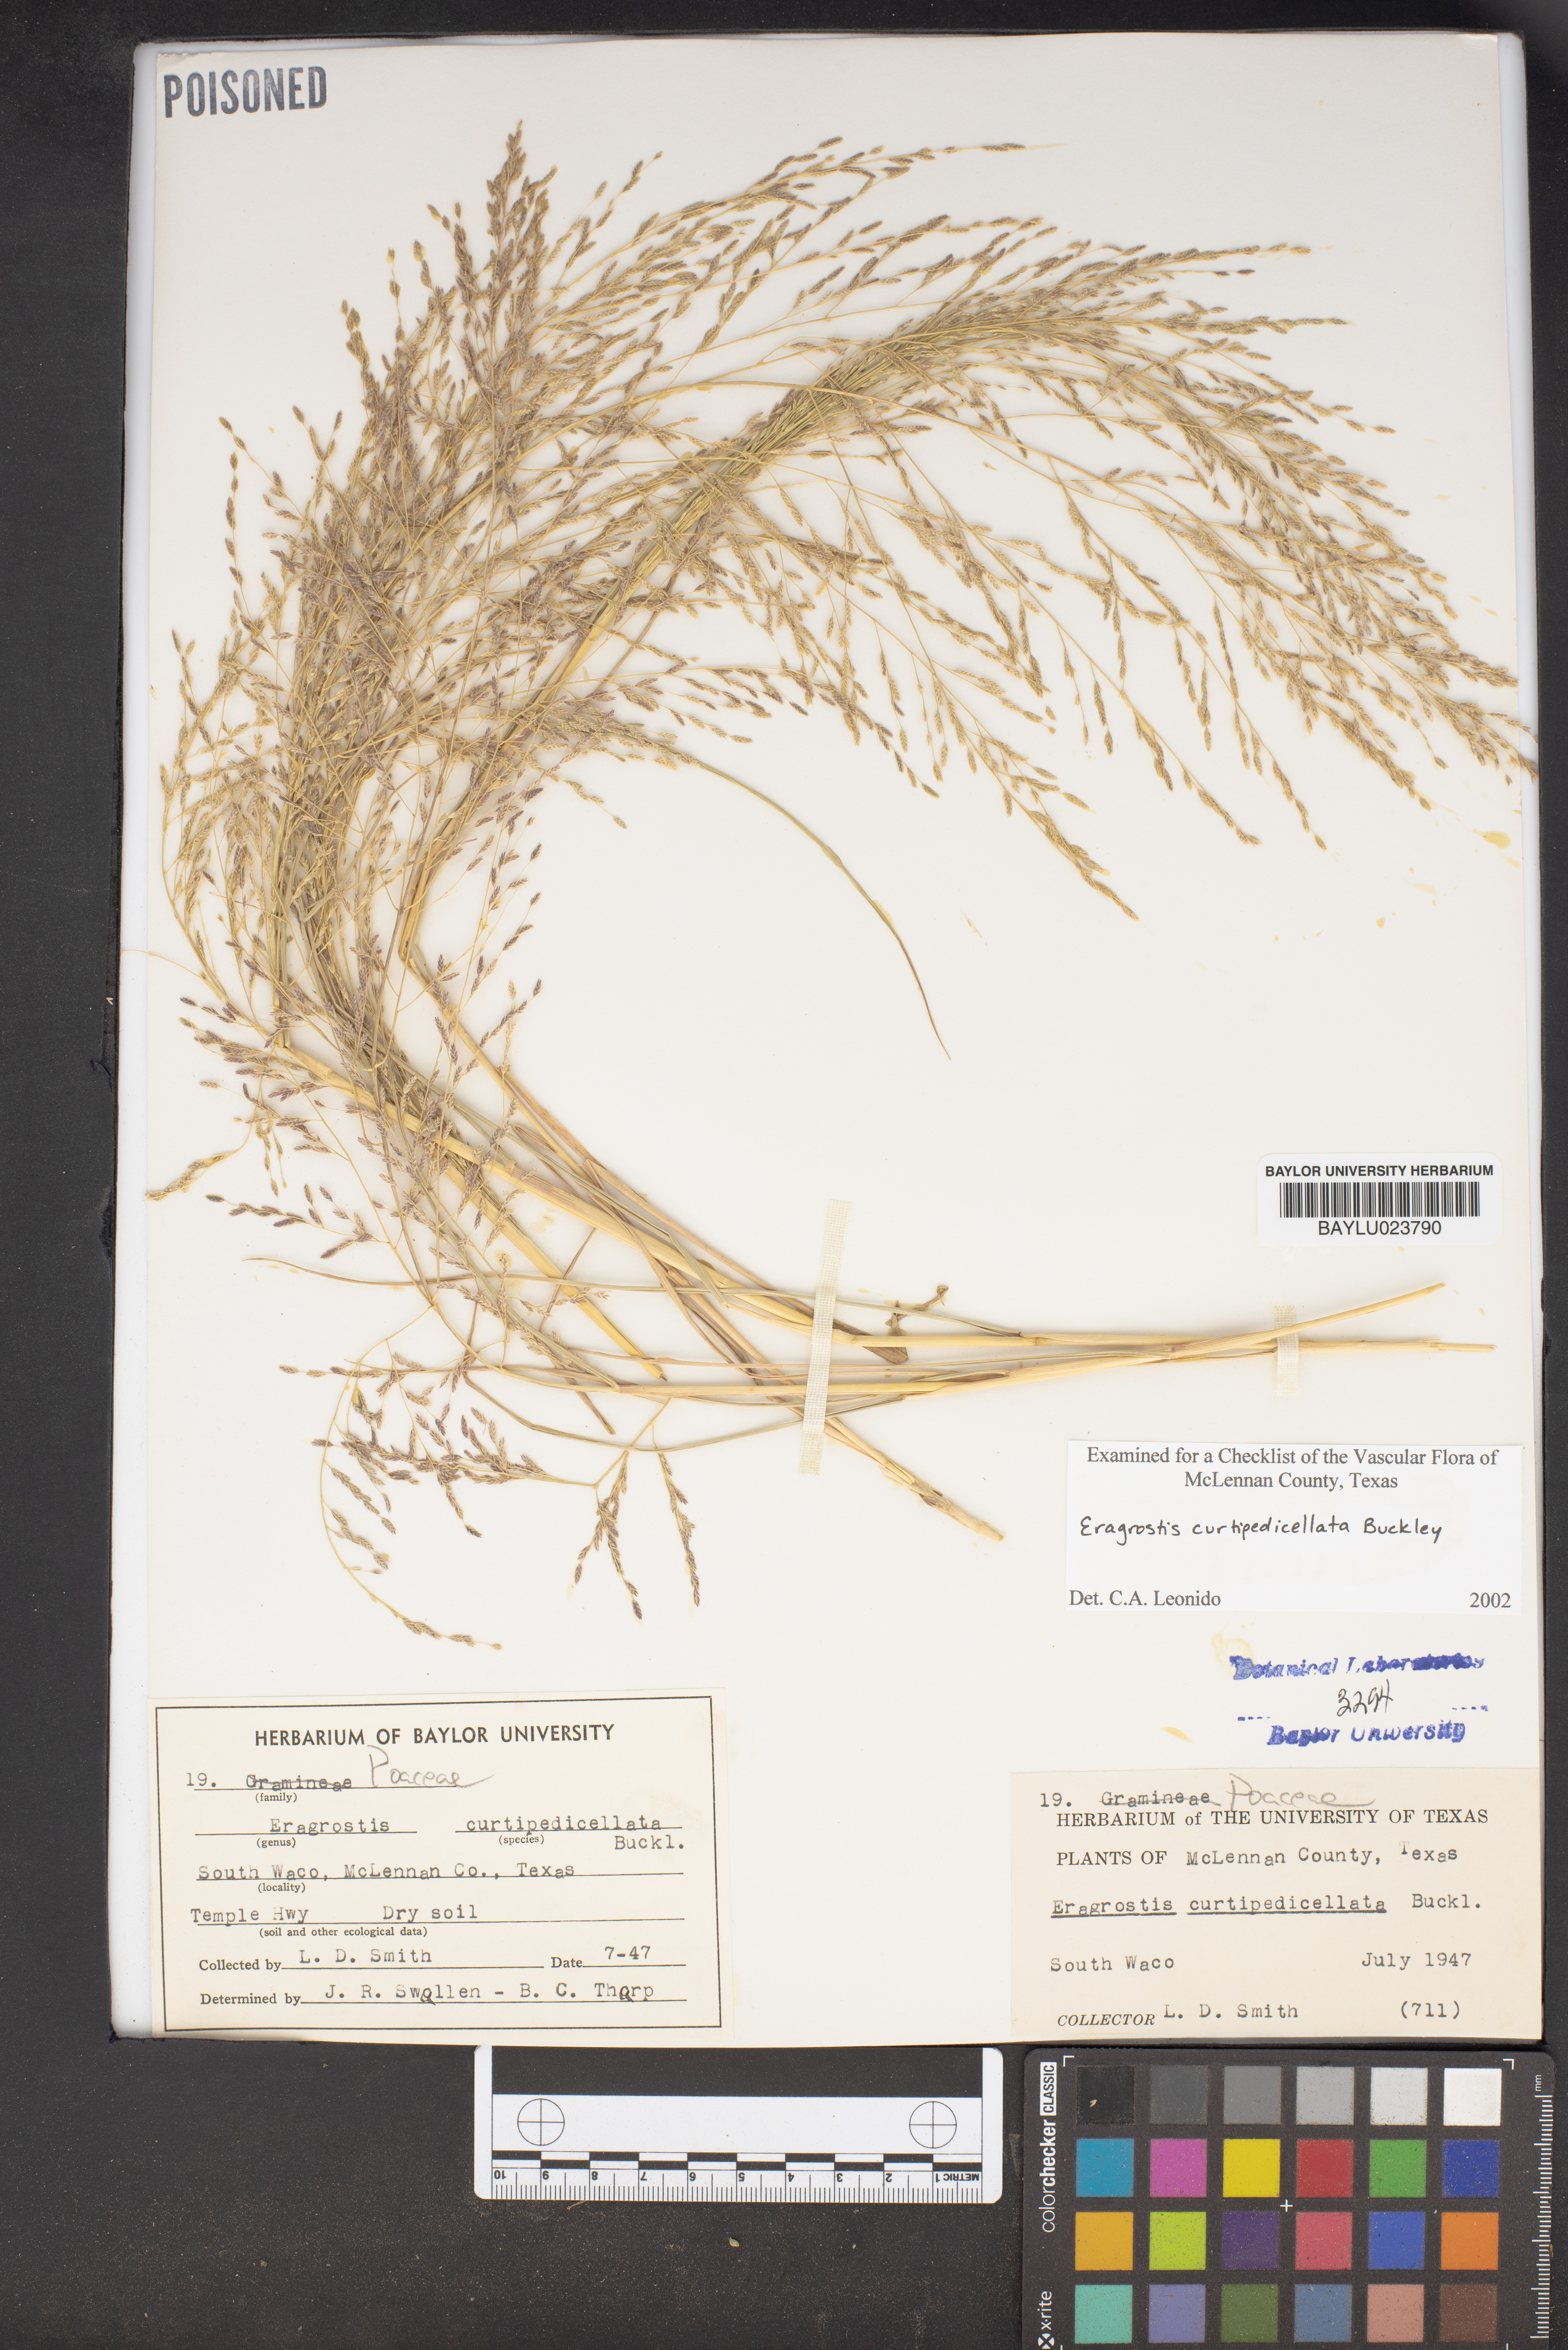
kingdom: Plantae
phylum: Tracheophyta
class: Liliopsida
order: Poales
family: Poaceae
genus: Eragrostis
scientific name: Eragrostis curtipedicellata
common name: Gummy love grass
